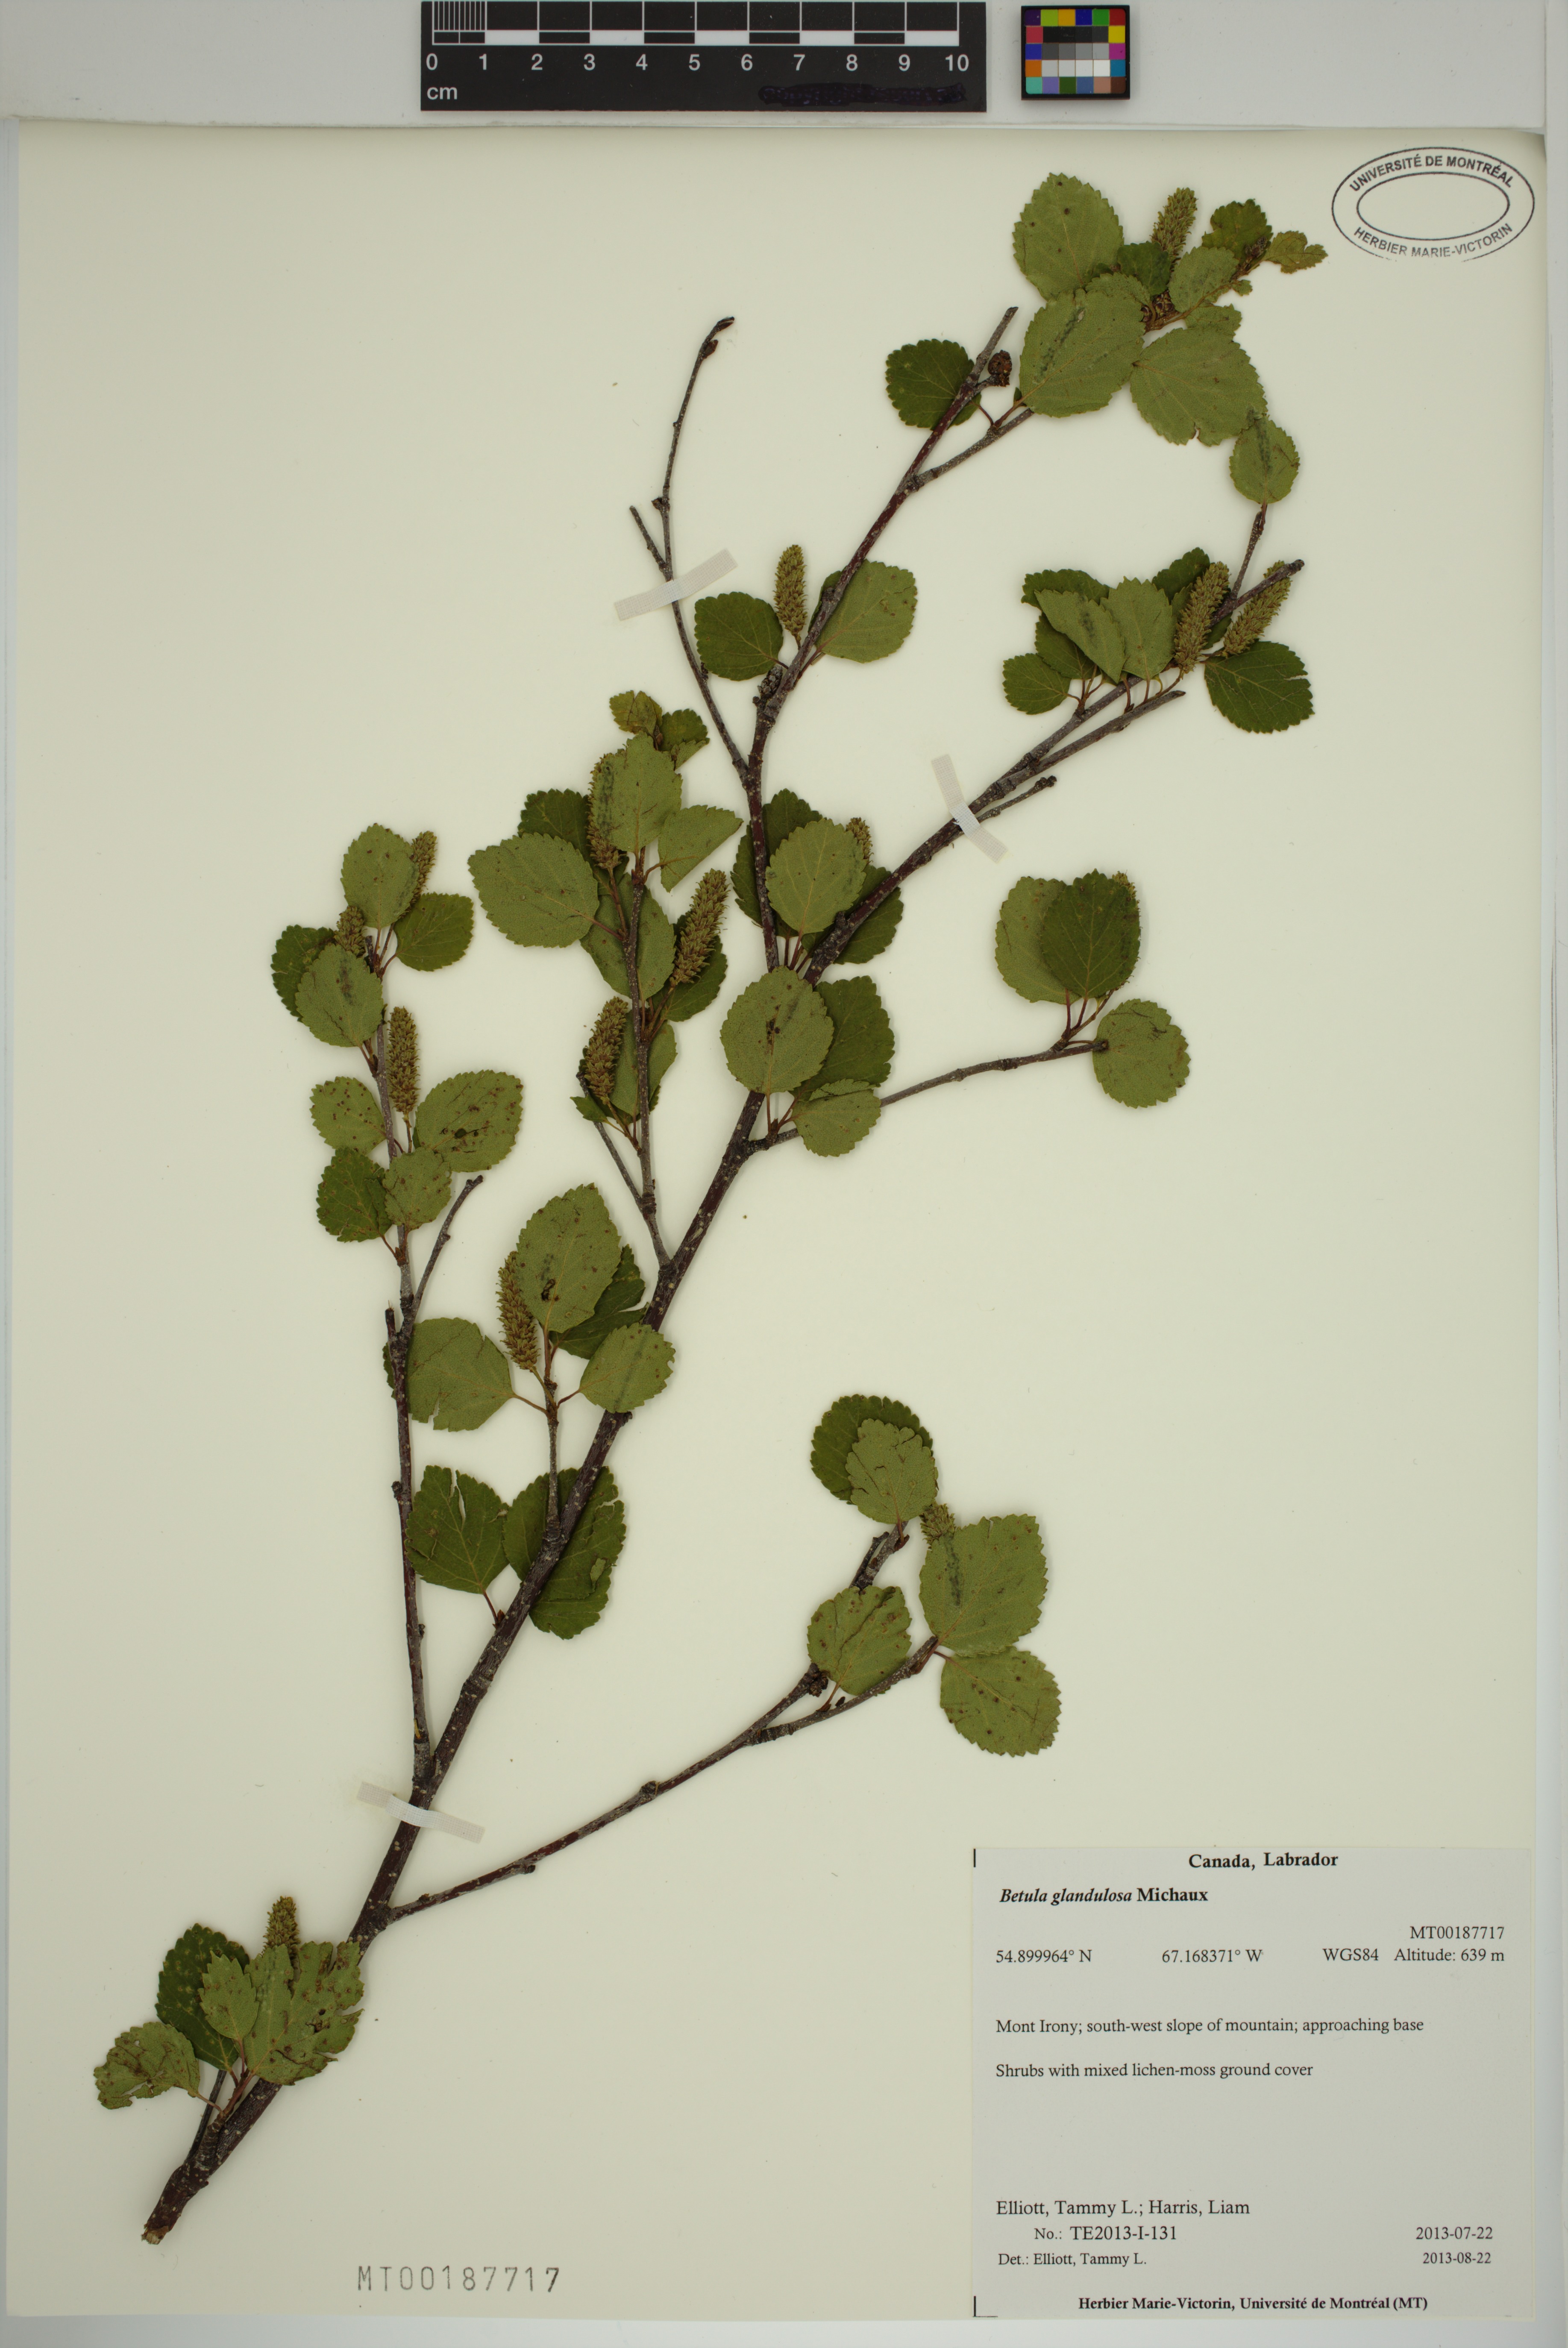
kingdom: Plantae
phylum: Tracheophyta
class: Magnoliopsida
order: Fagales
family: Betulaceae
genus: Betula
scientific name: Betula glandulosa
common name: Dwarf birch
